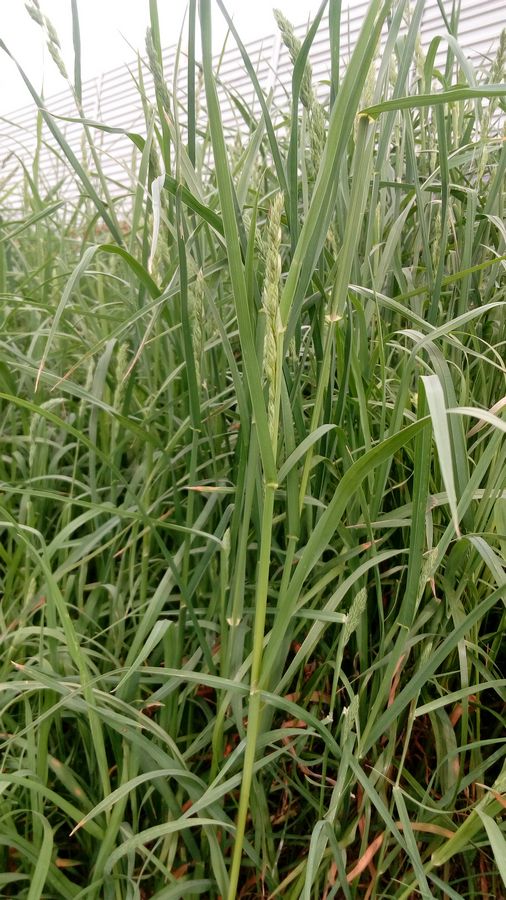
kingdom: Plantae
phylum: Tracheophyta
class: Liliopsida
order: Poales
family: Poaceae
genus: Dactylis
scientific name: Dactylis glomerata
